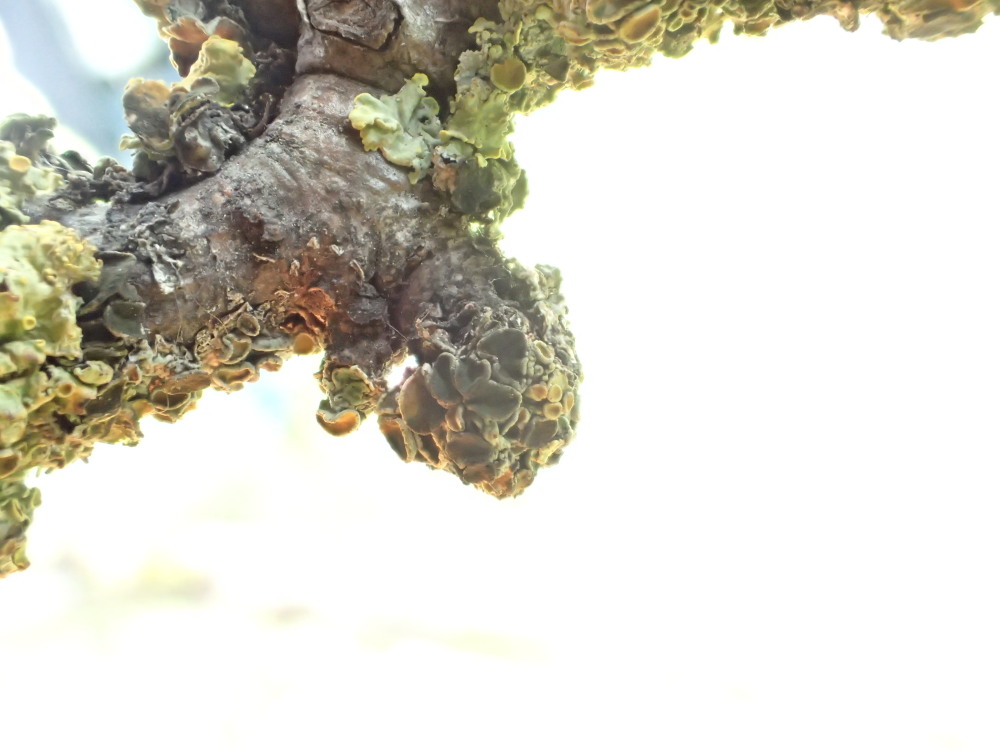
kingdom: Fungi
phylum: Ascomycota
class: Dothideomycetes
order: Mycosphaerellales
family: Teratosphaeriaceae
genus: Xanthoriicola
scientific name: Xanthoriicola physciae
